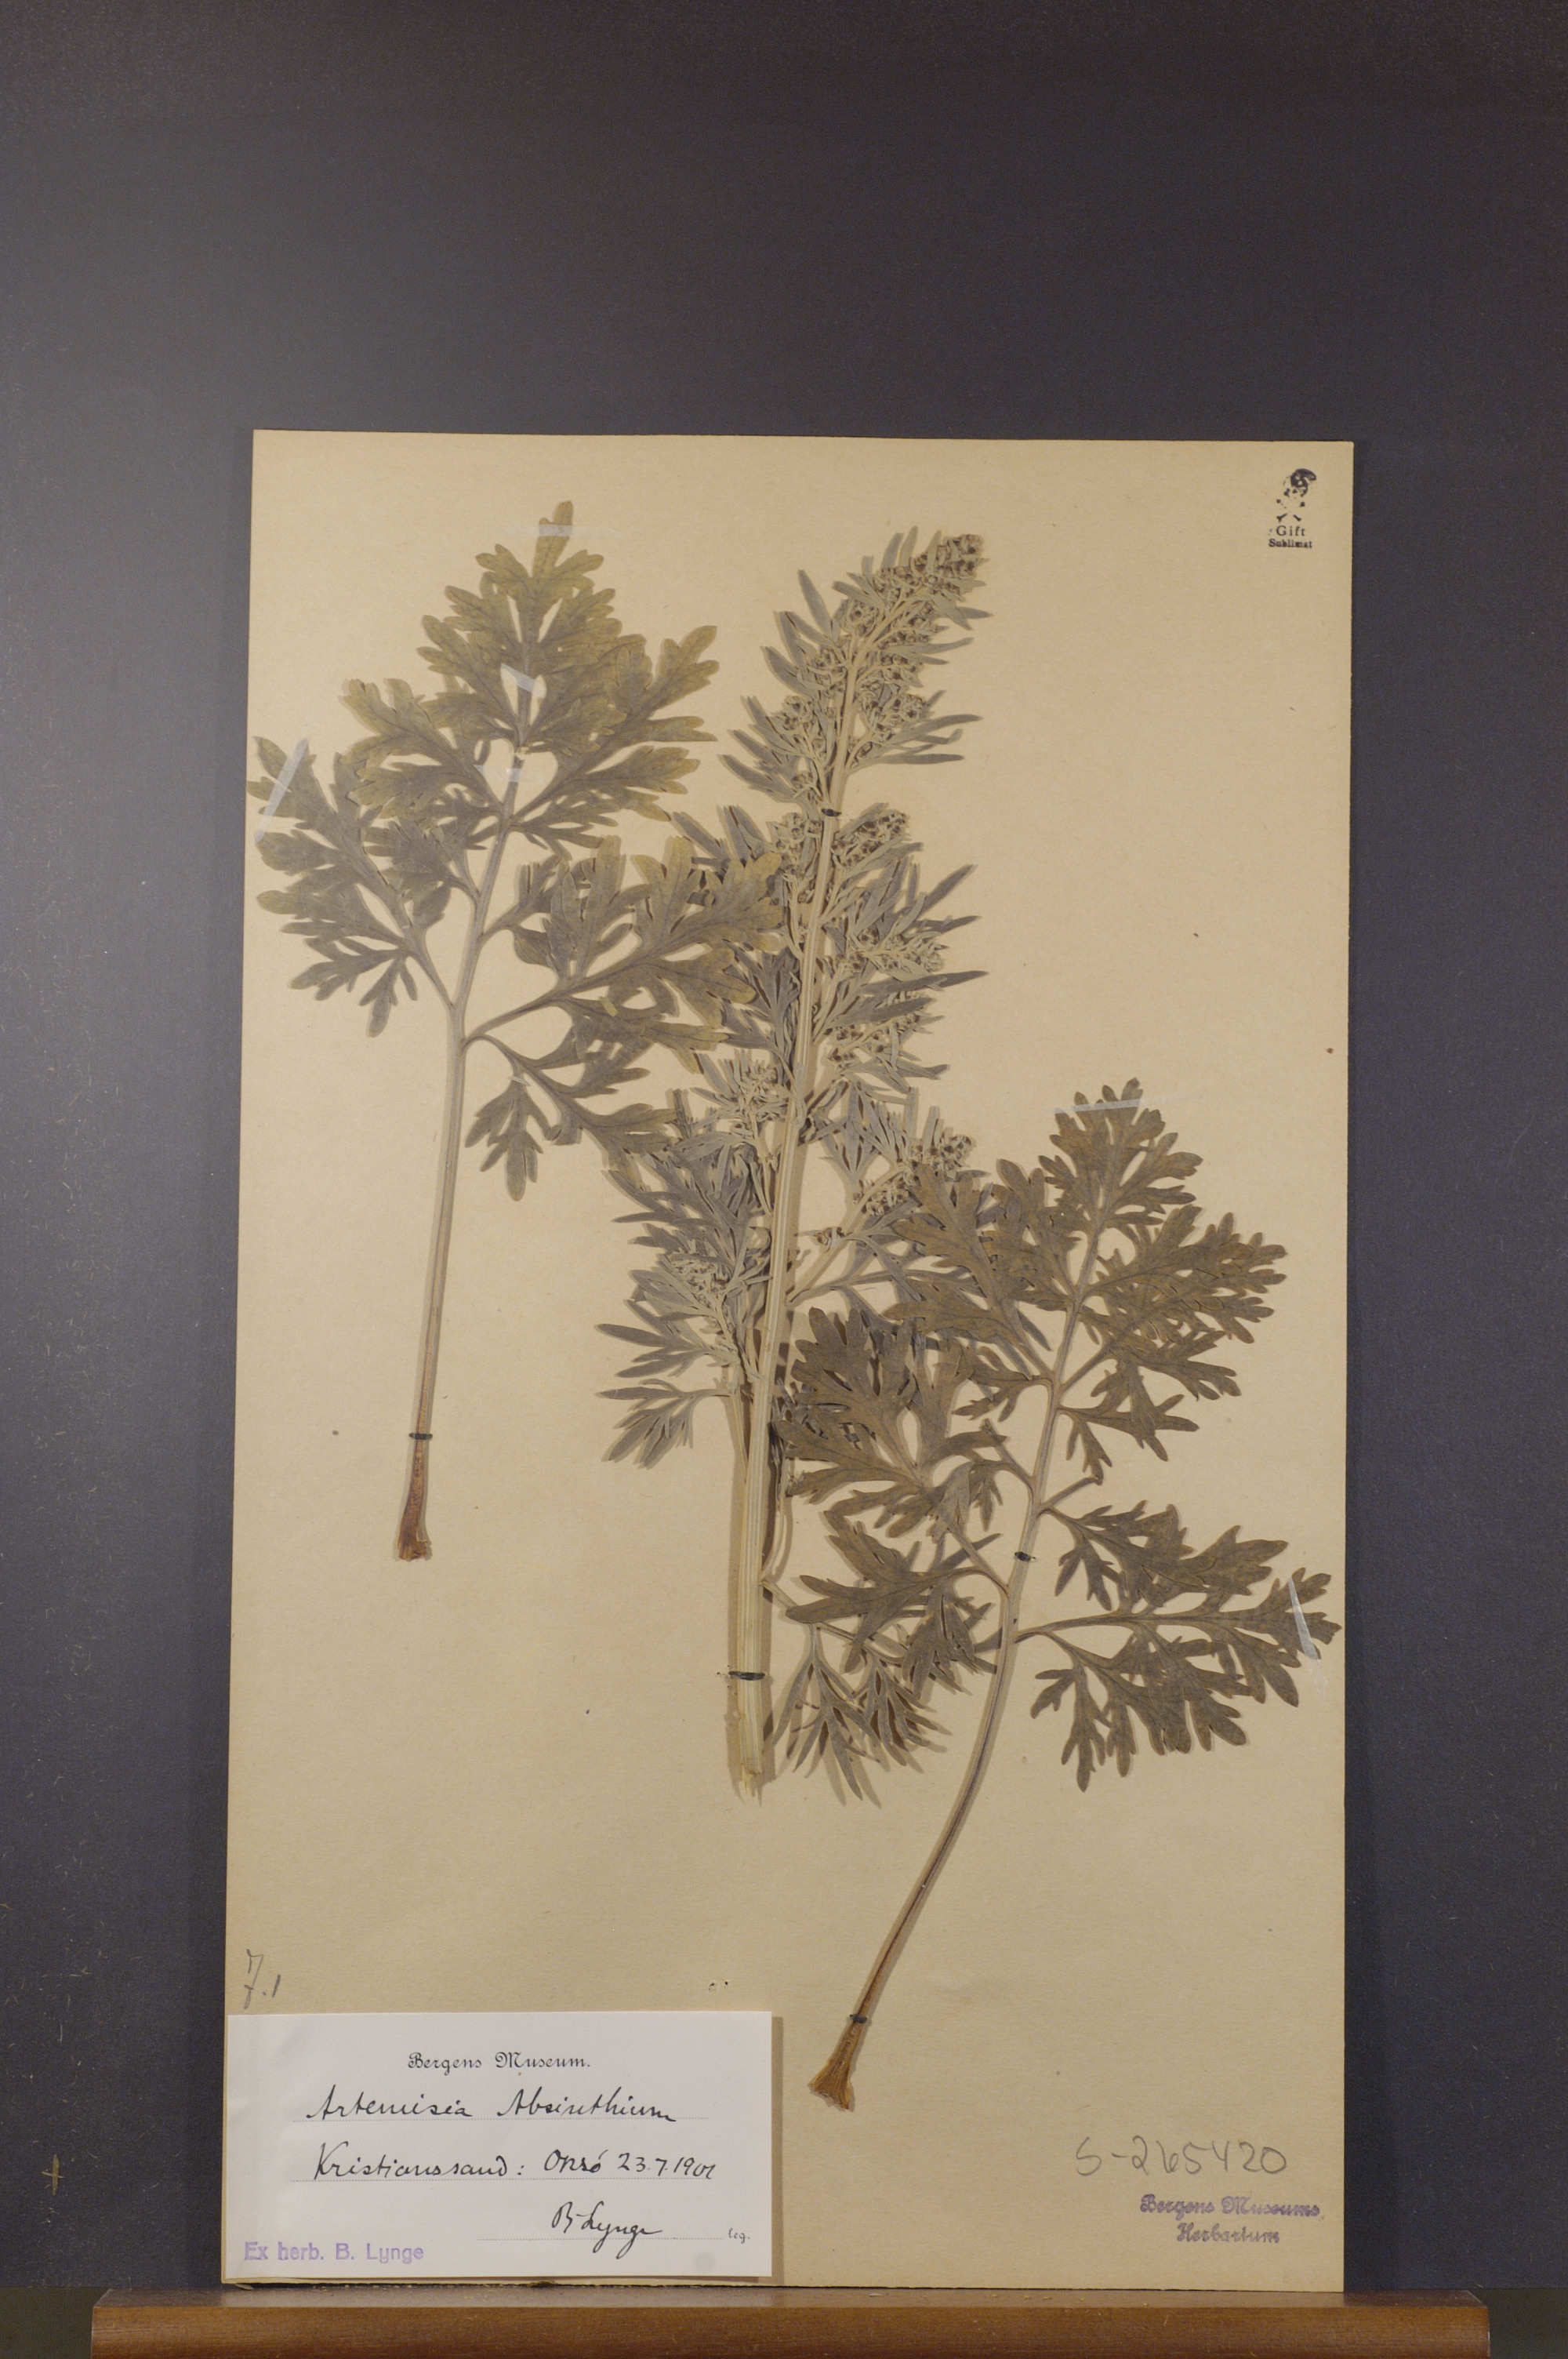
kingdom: Plantae
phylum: Tracheophyta
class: Magnoliopsida
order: Asterales
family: Asteraceae
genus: Artemisia
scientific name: Artemisia absinthium
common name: Wormwood
